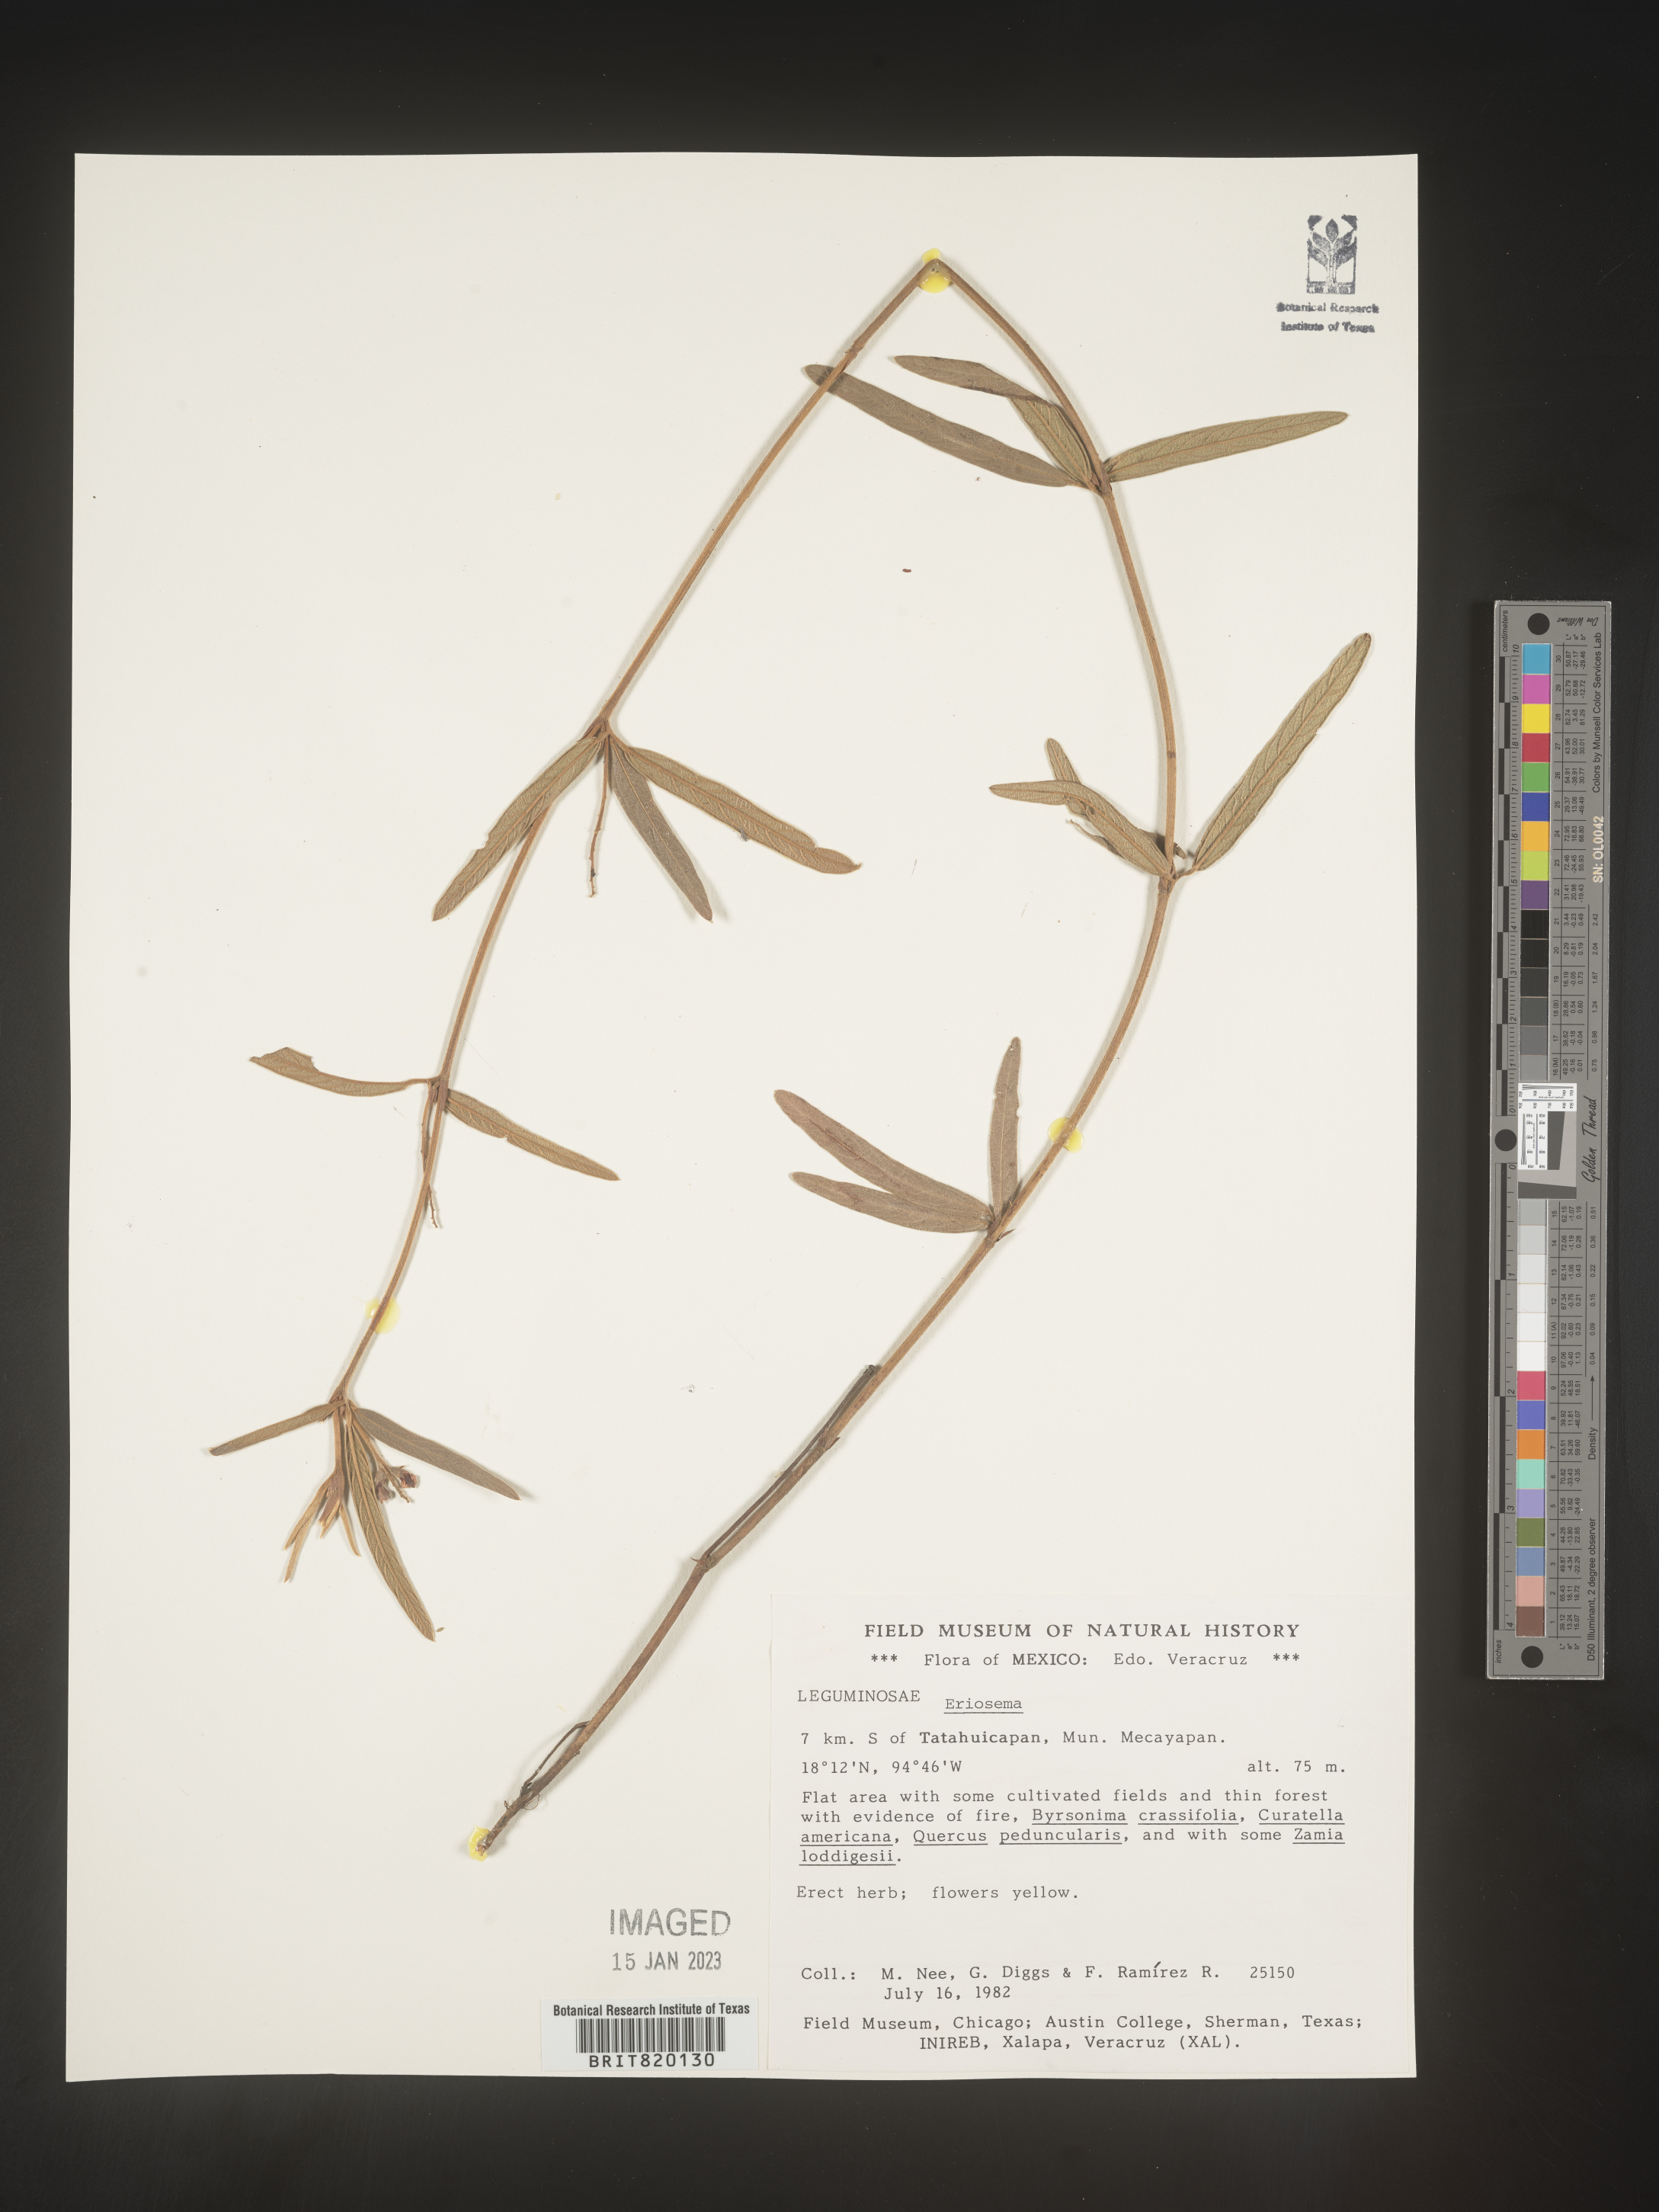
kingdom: Plantae
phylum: Tracheophyta
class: Magnoliopsida
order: Fabales
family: Fabaceae
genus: Eriosema
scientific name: Eriosema
